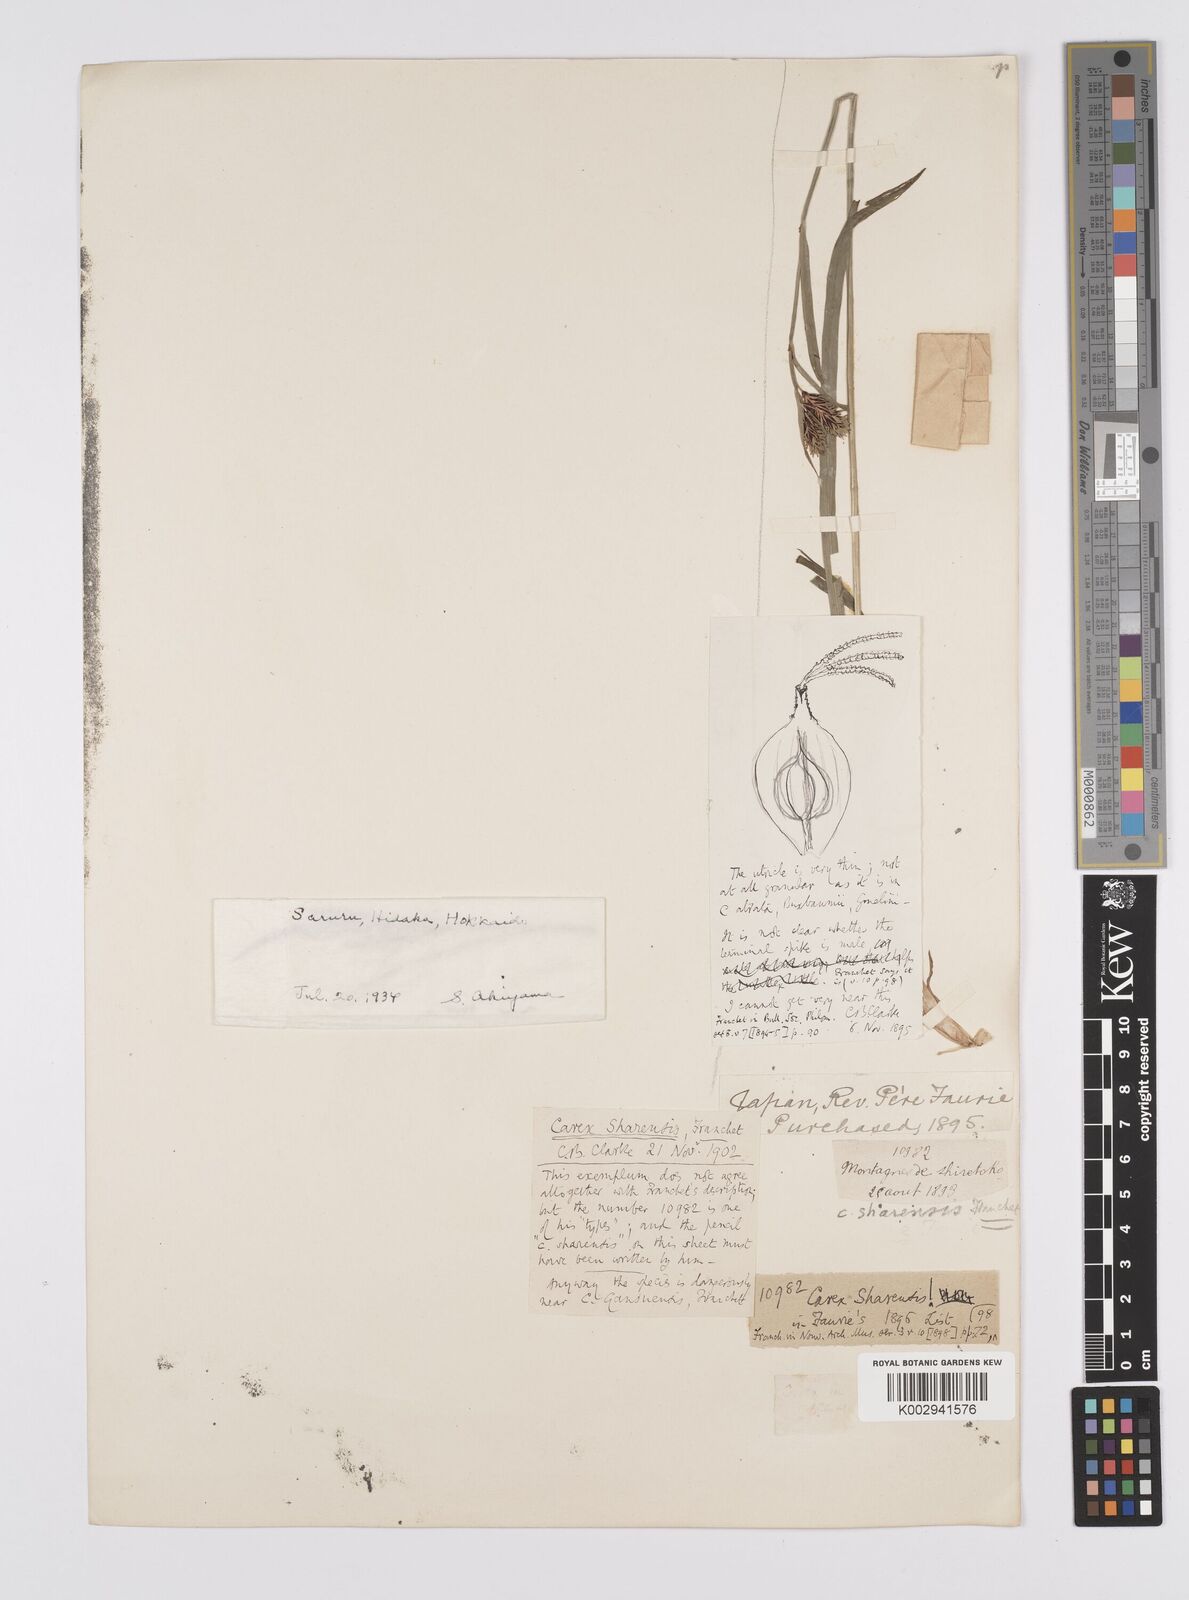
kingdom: Plantae
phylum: Tracheophyta
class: Liliopsida
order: Poales
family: Cyperaceae
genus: Carex
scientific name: Carex augustinowiczii
